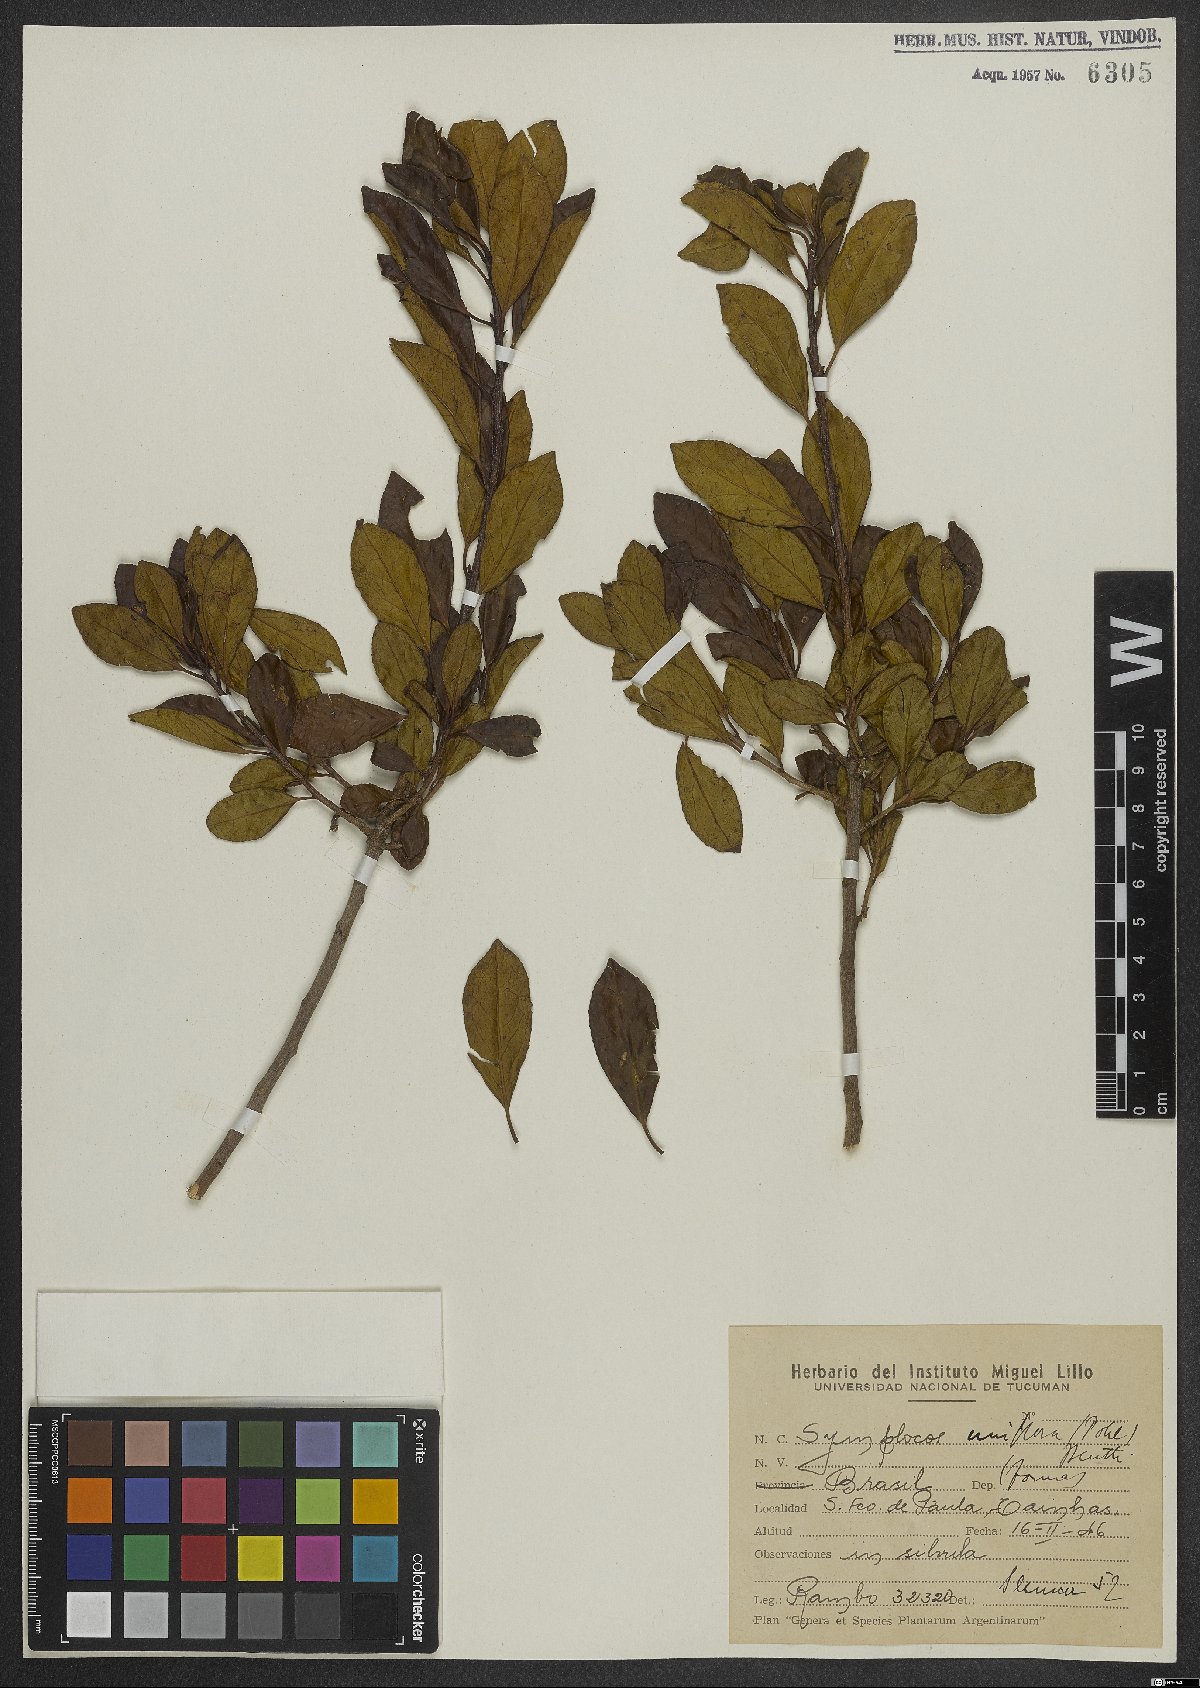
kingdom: Plantae
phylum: Tracheophyta
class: Magnoliopsida
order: Ericales
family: Symplocaceae
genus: Symplocos
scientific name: Symplocos uniflora
